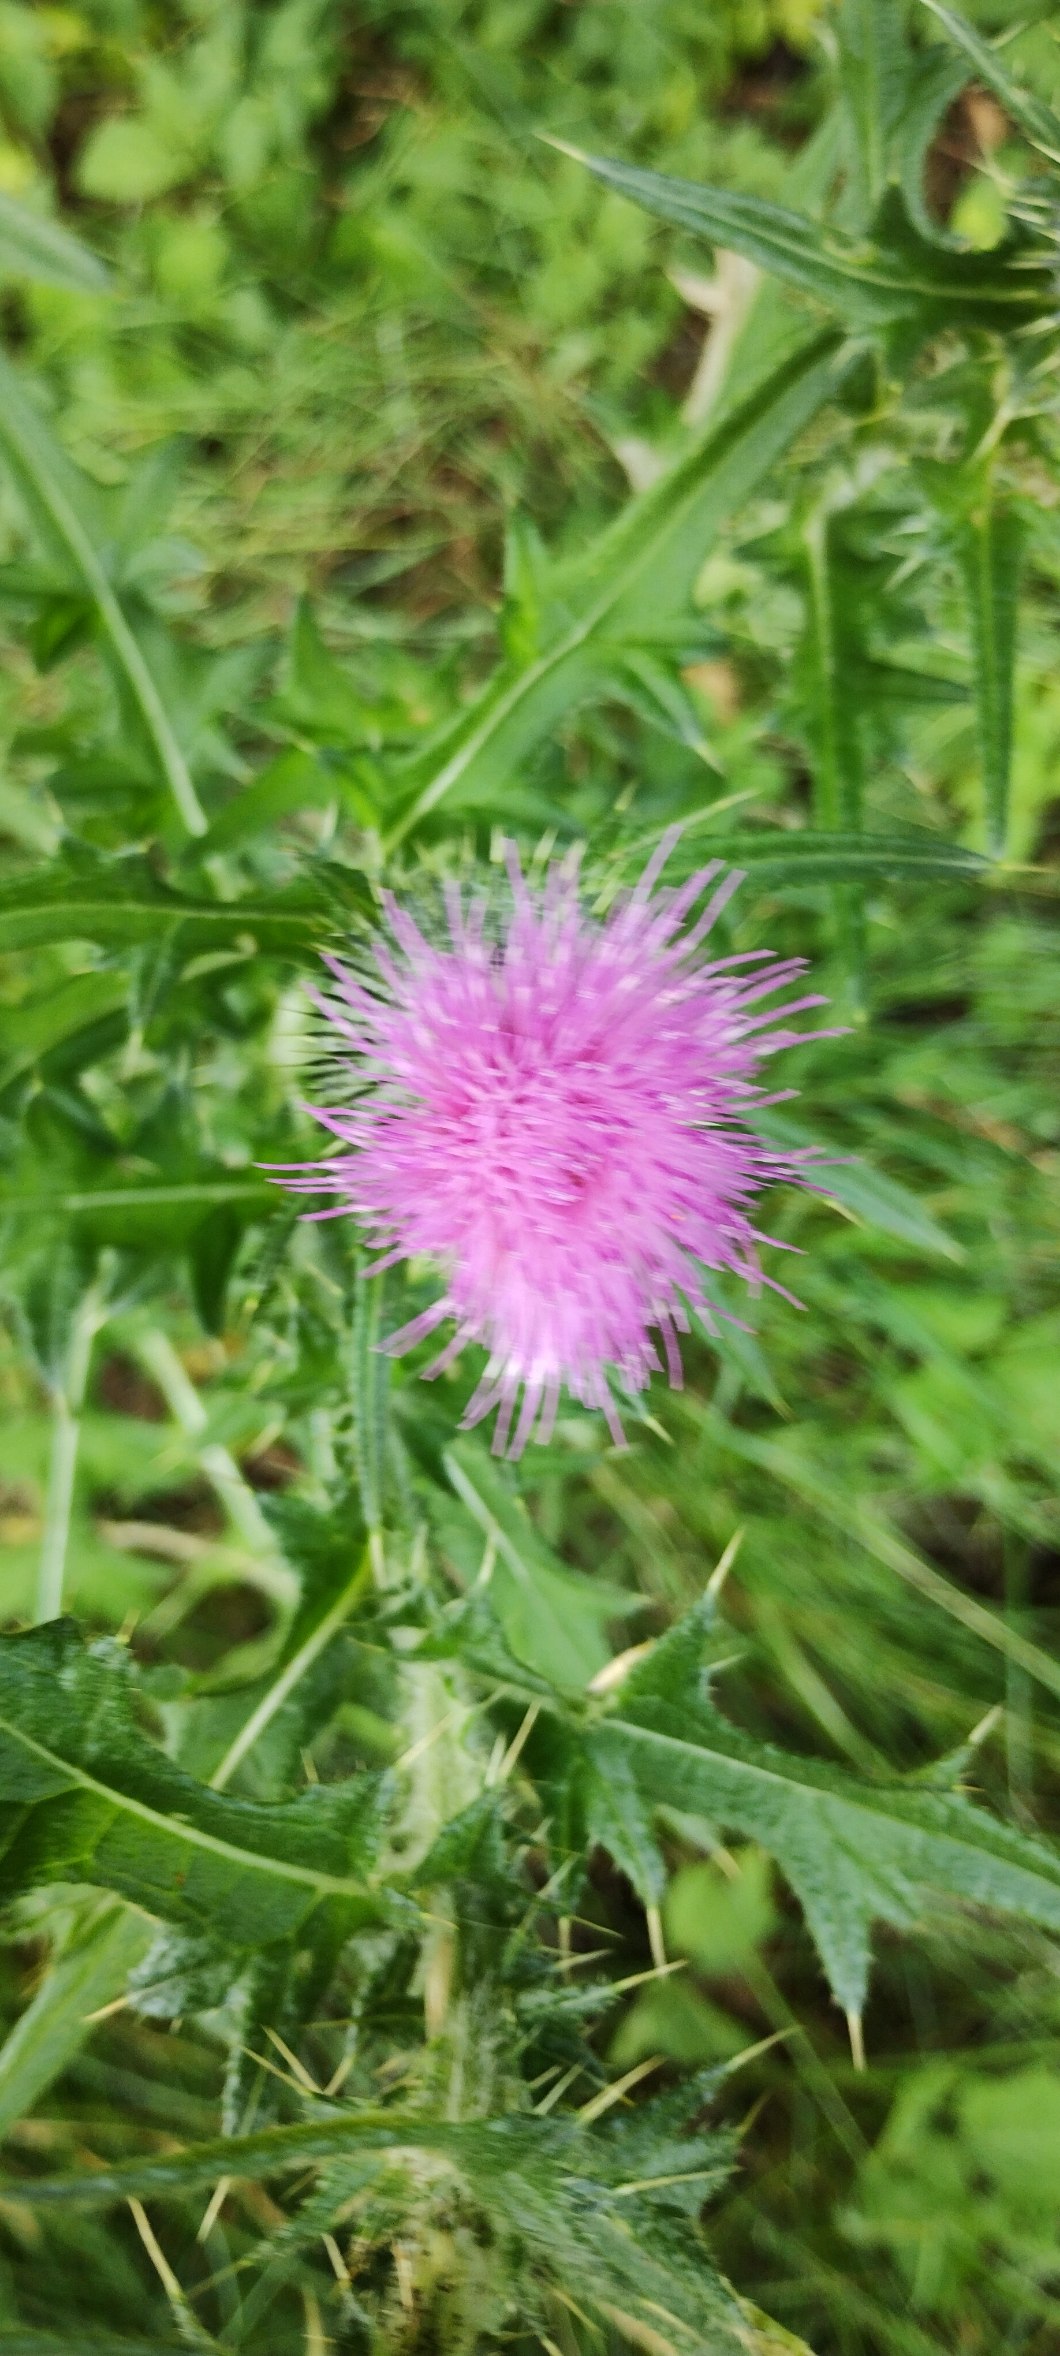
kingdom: Plantae
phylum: Tracheophyta
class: Magnoliopsida
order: Asterales
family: Asteraceae
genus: Cirsium
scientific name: Cirsium vulgare
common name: Horse-tidsel
